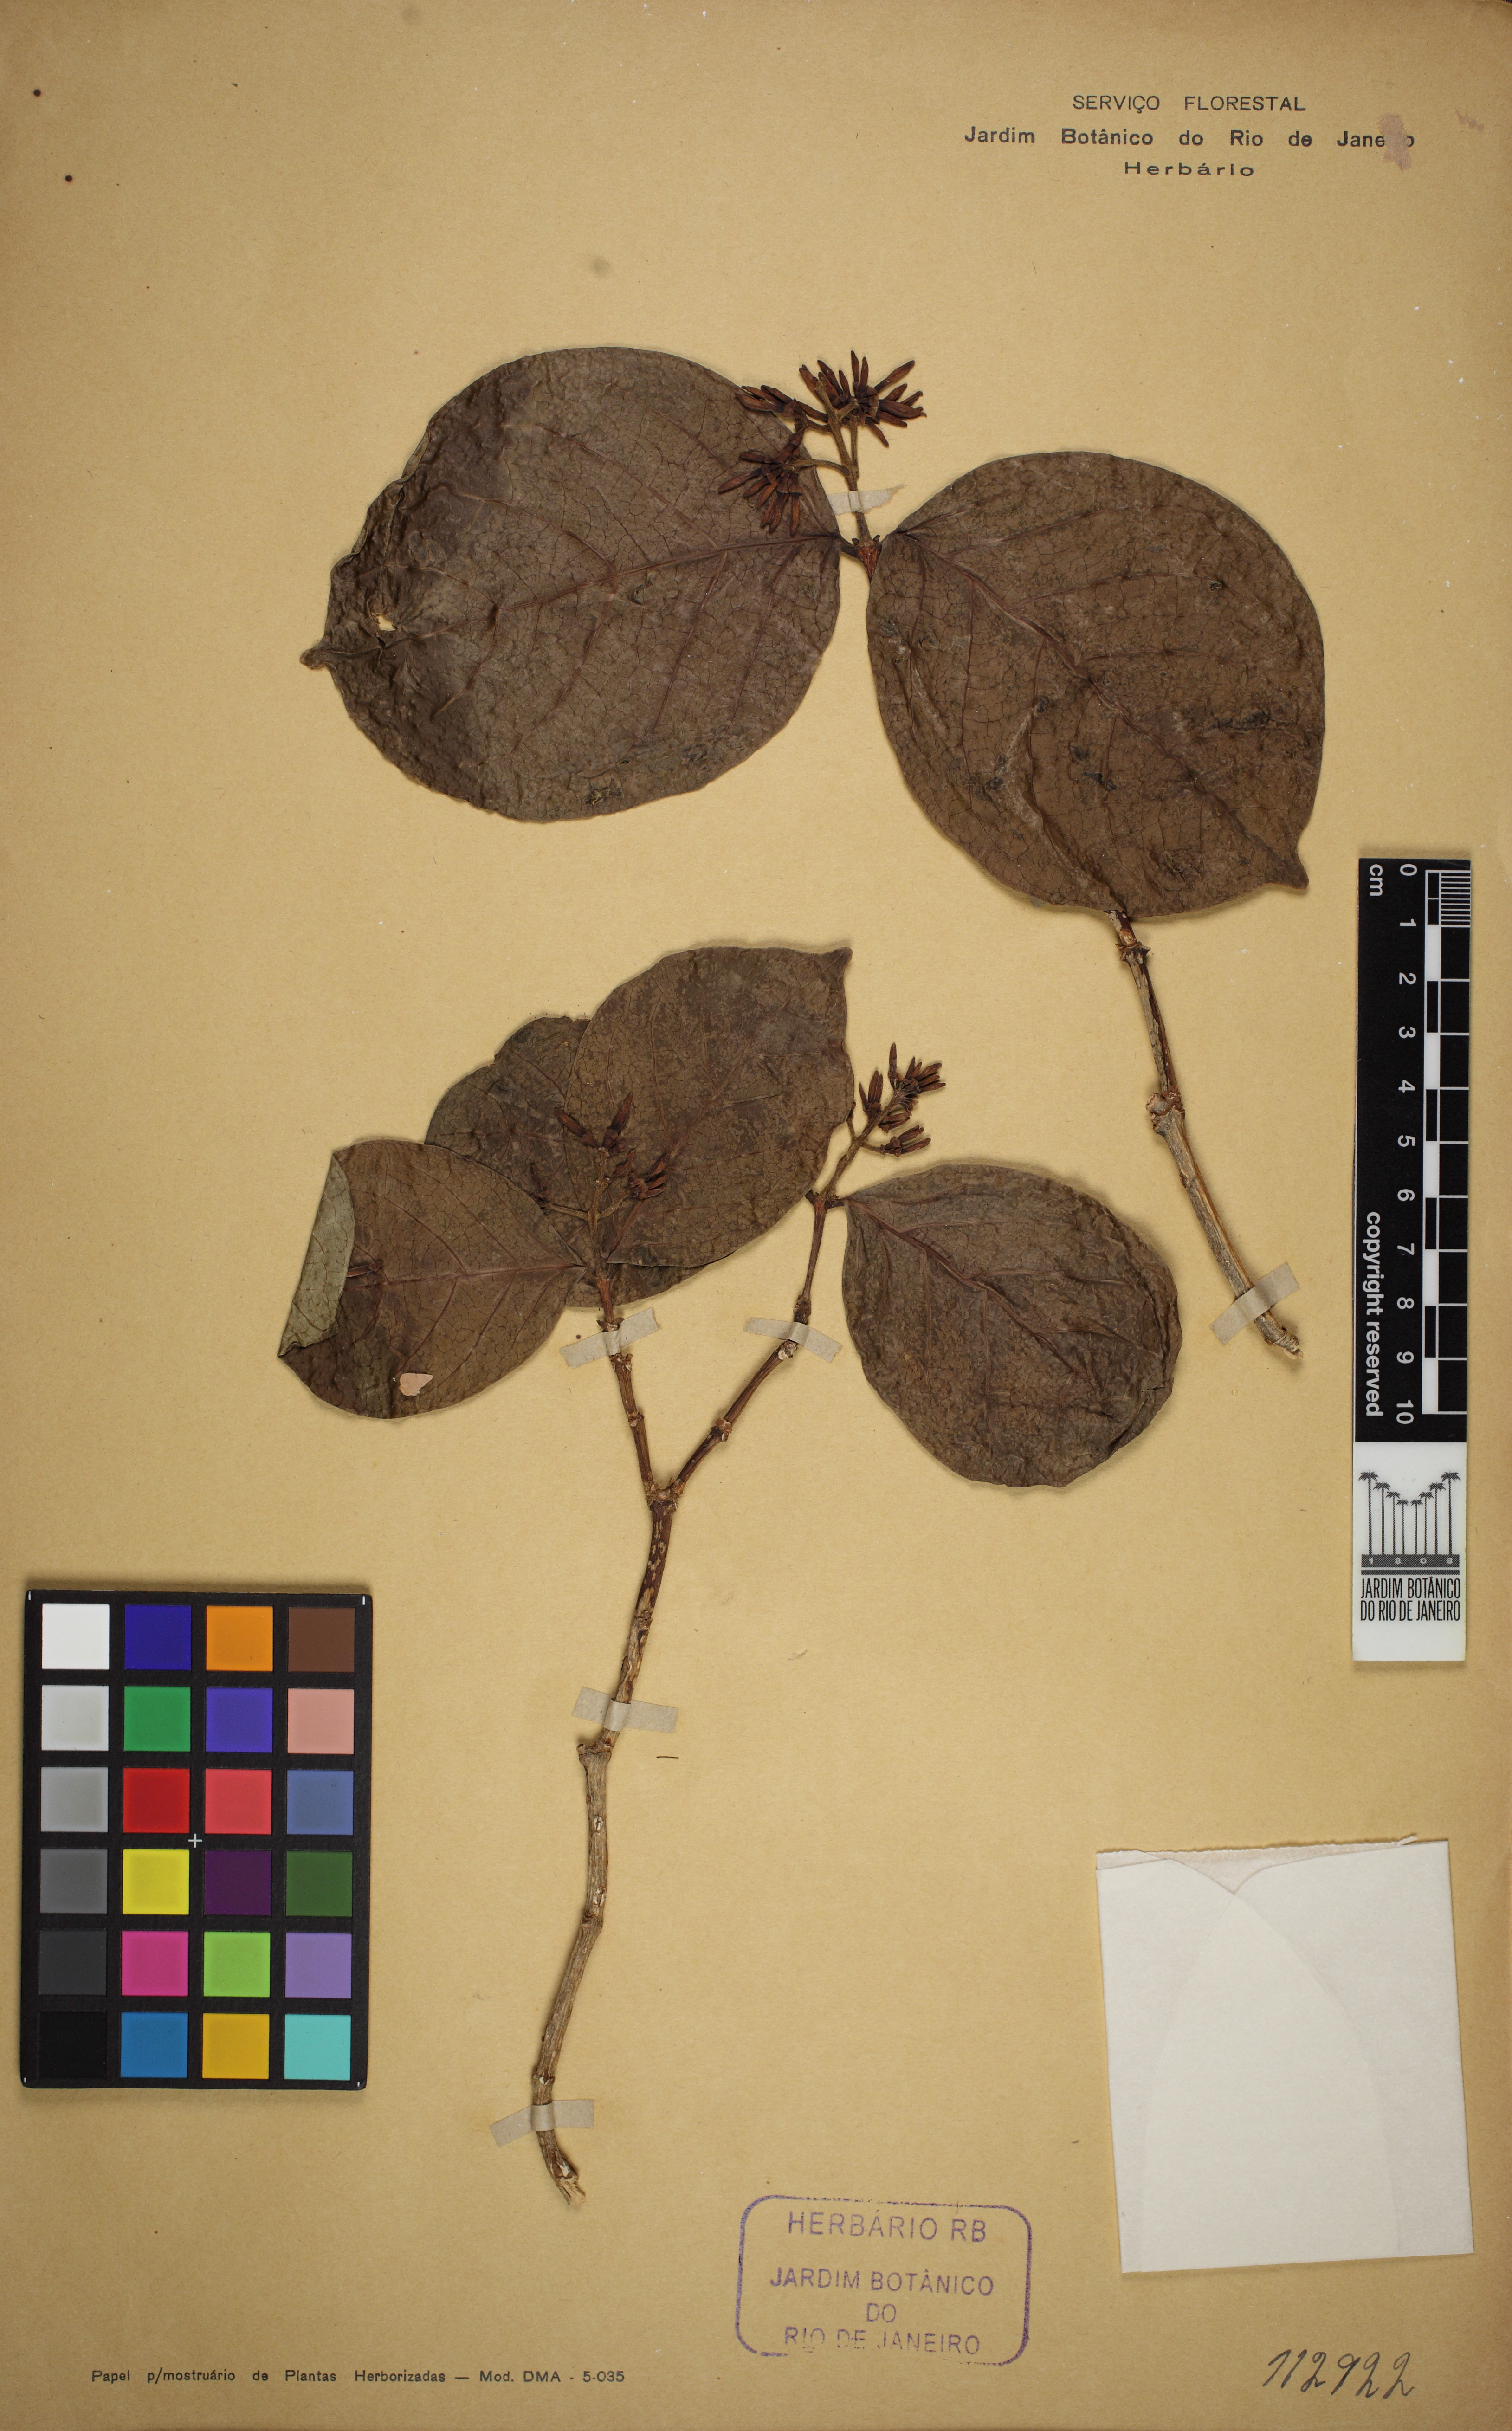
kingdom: Plantae
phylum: Tracheophyta
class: Magnoliopsida
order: Gentianales
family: Rubiaceae
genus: Coussarea
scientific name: Coussarea hydrangeifolia
